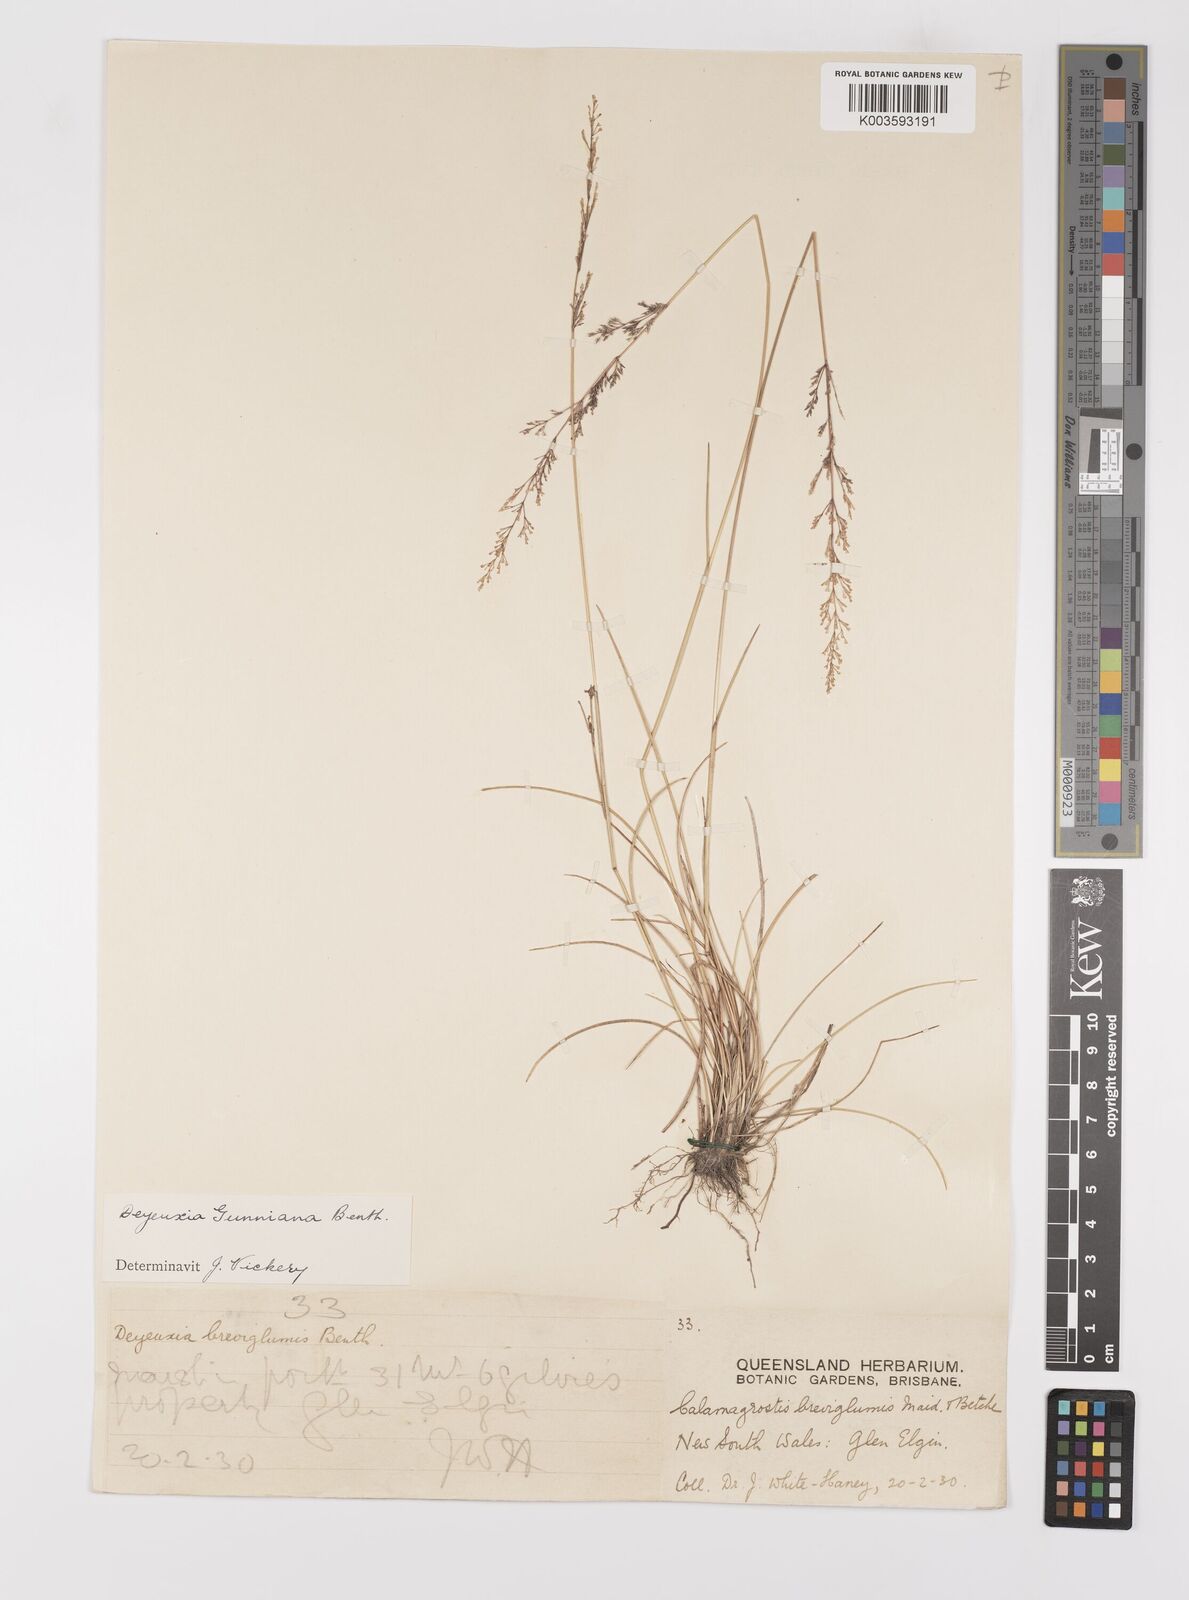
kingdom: Plantae
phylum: Tracheophyta
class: Liliopsida
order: Poales
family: Poaceae
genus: Ancistragrostis
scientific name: Ancistragrostis
